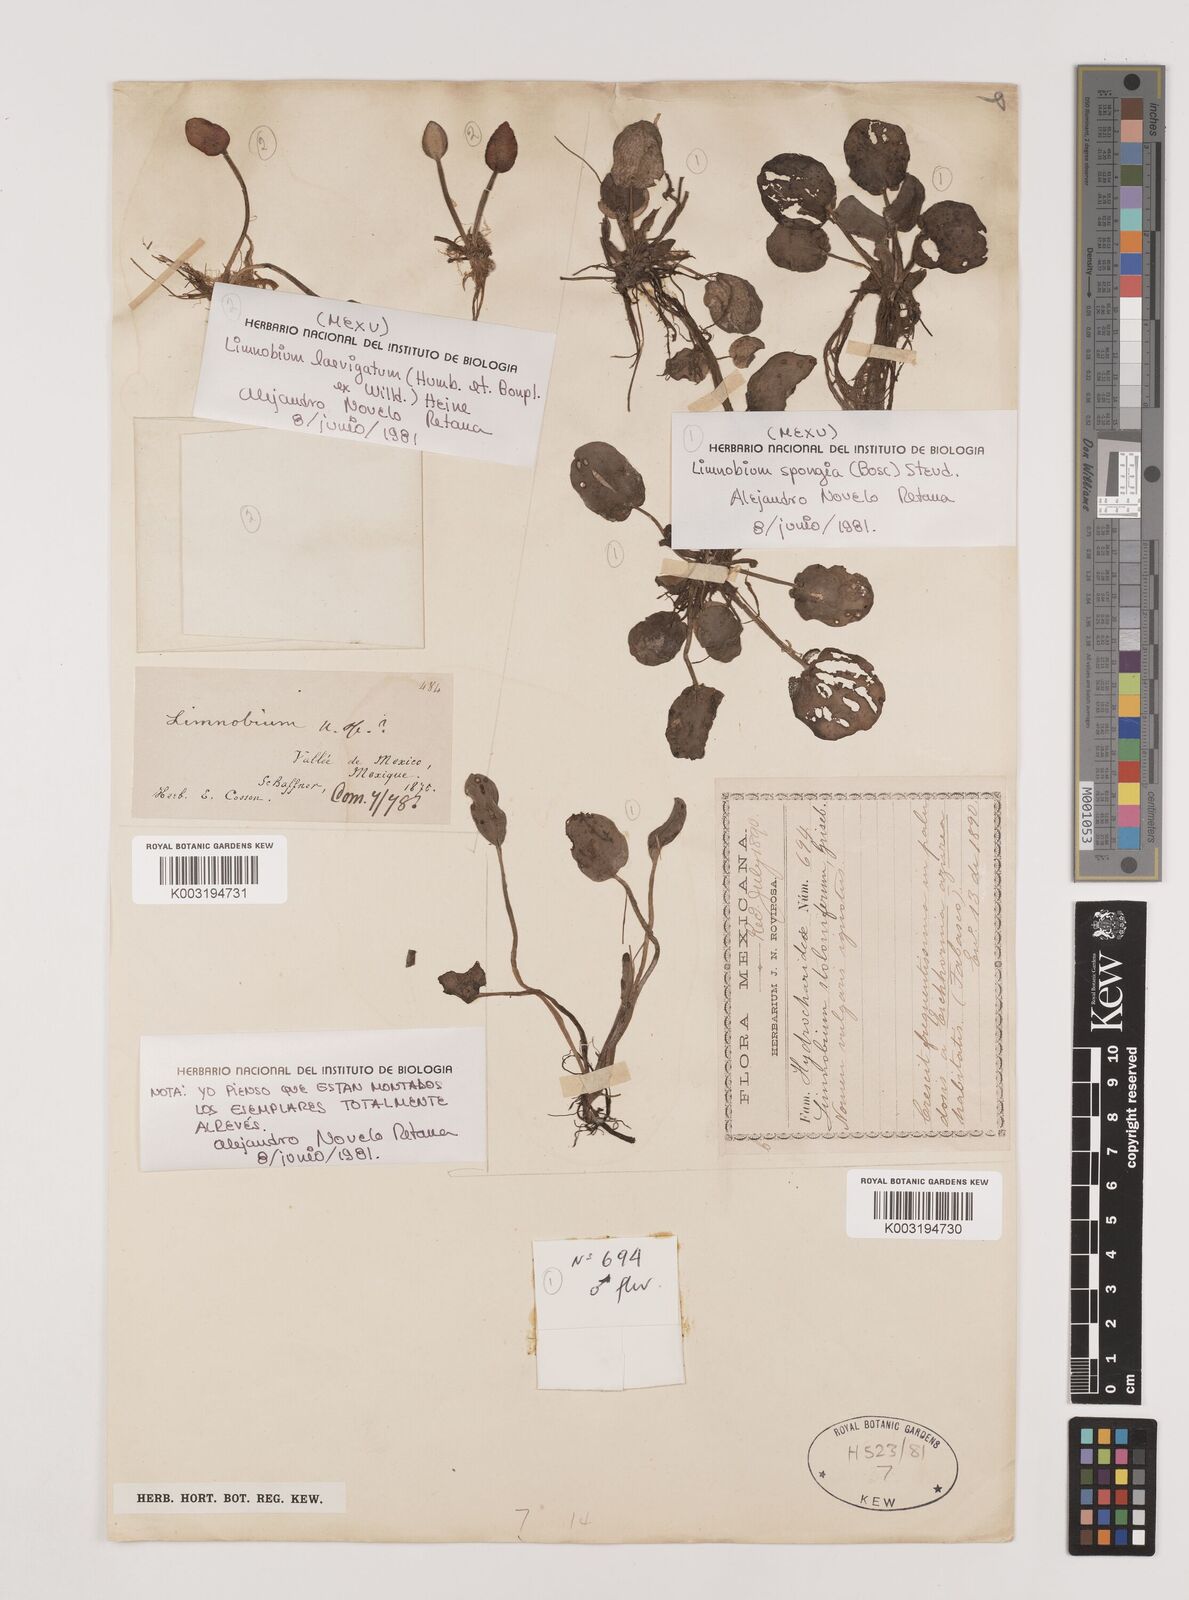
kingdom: Plantae
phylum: Tracheophyta
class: Liliopsida
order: Alismatales
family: Hydrocharitaceae
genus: Hydrocharis
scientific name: Hydrocharis laevigata
